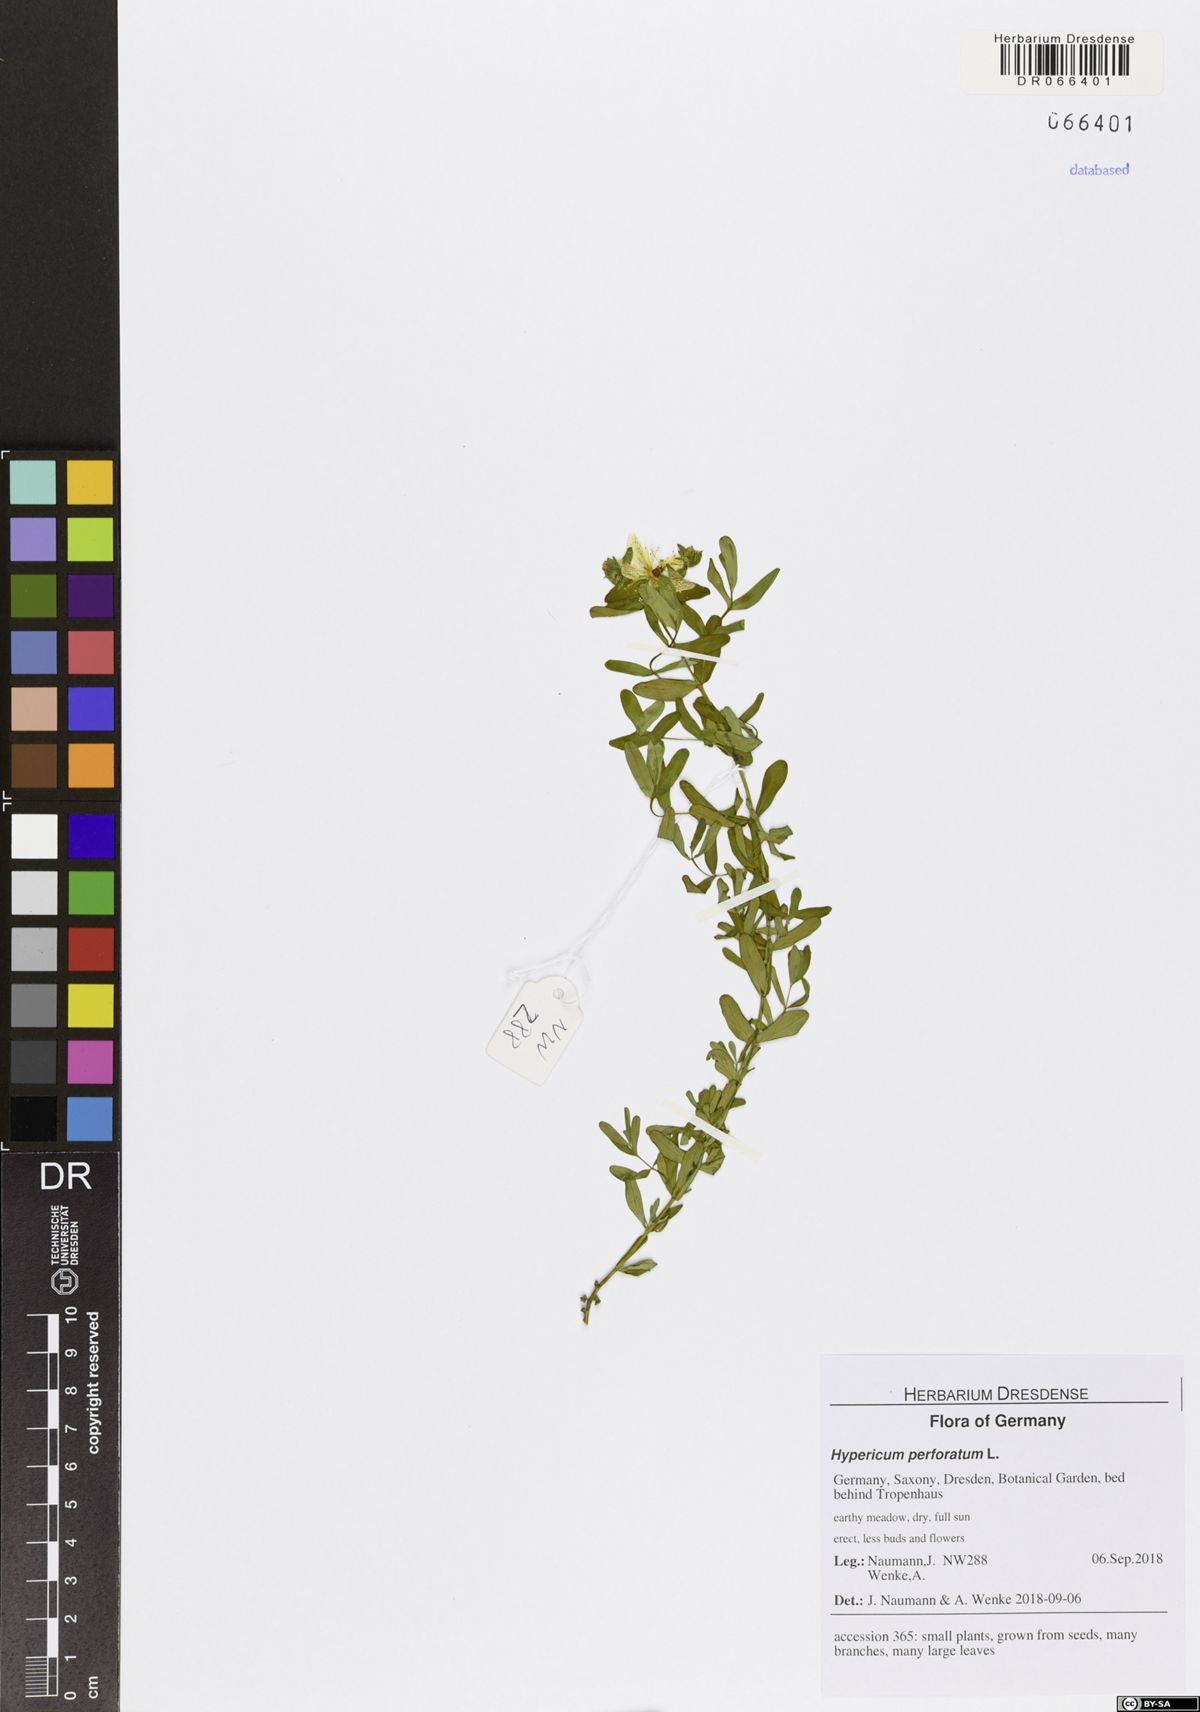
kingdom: Plantae
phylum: Tracheophyta
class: Magnoliopsida
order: Malpighiales
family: Hypericaceae
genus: Hypericum
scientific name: Hypericum perforatum
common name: Common st. johnswort
